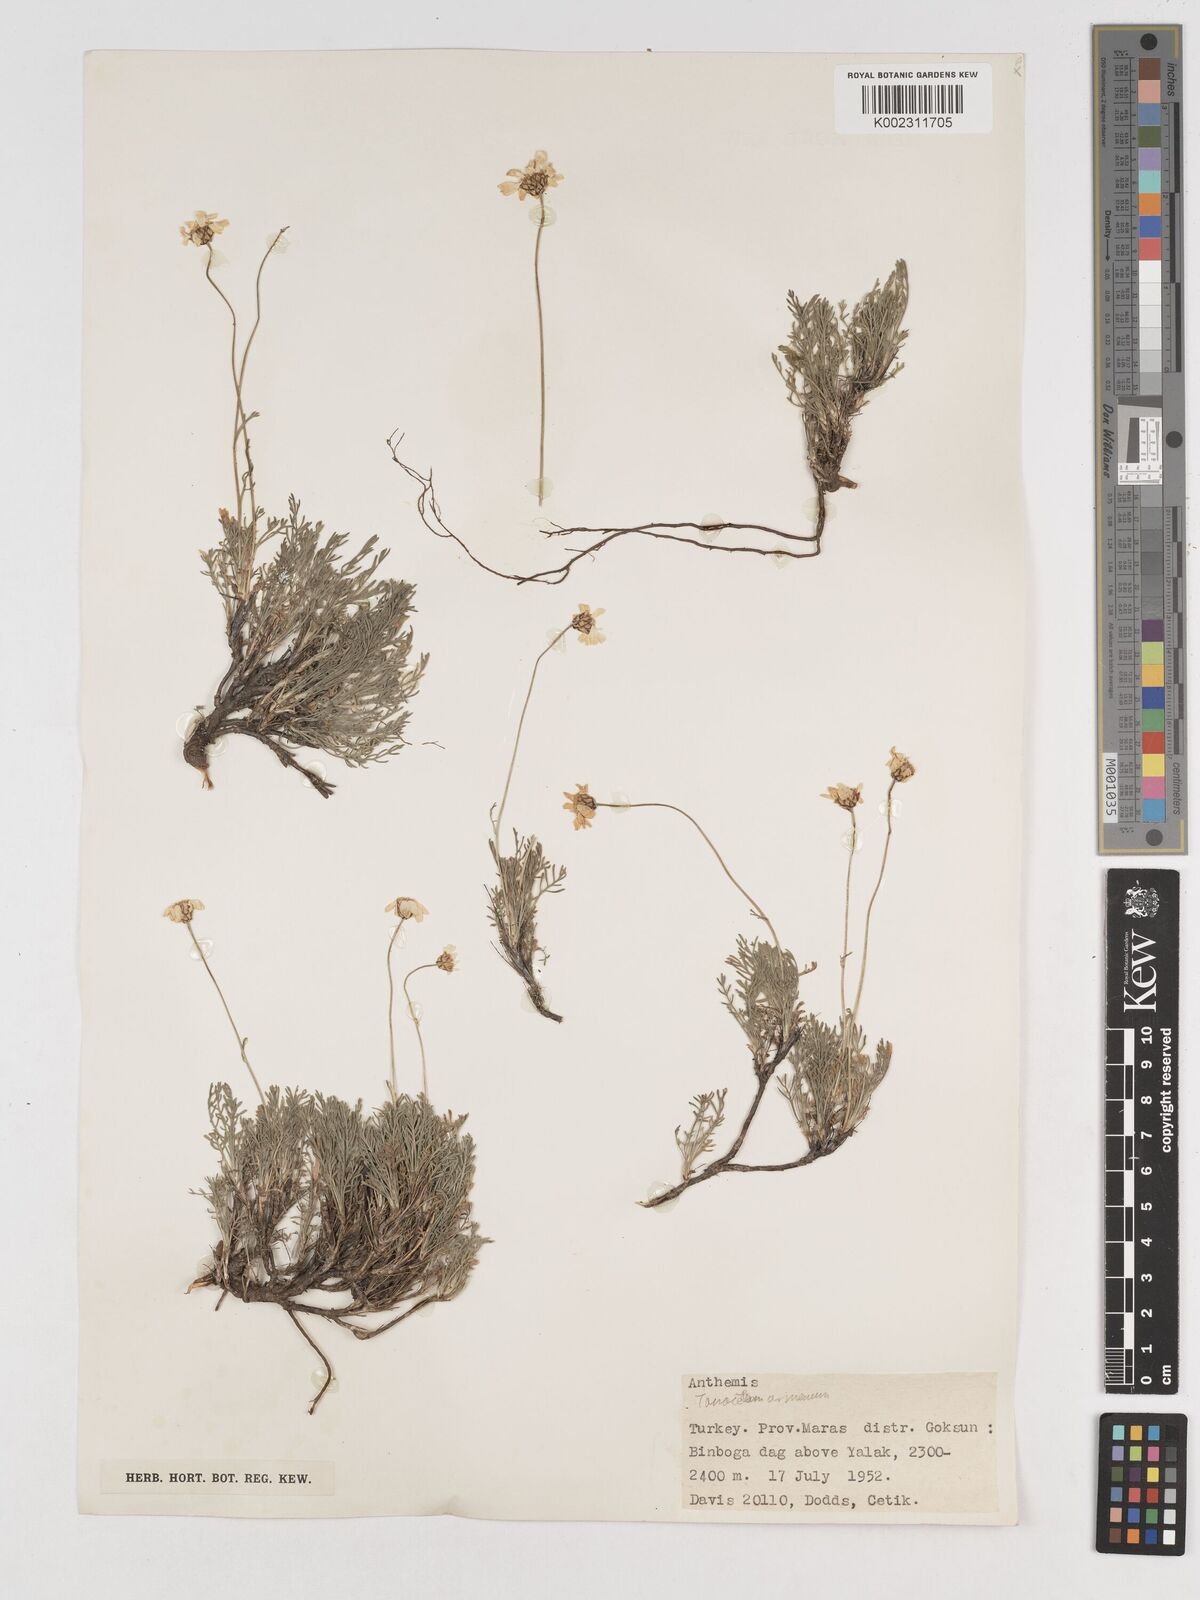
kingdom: Plantae
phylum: Tracheophyta
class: Magnoliopsida
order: Asterales
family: Asteraceae
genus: Tanacetum
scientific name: Tanacetum armenum
